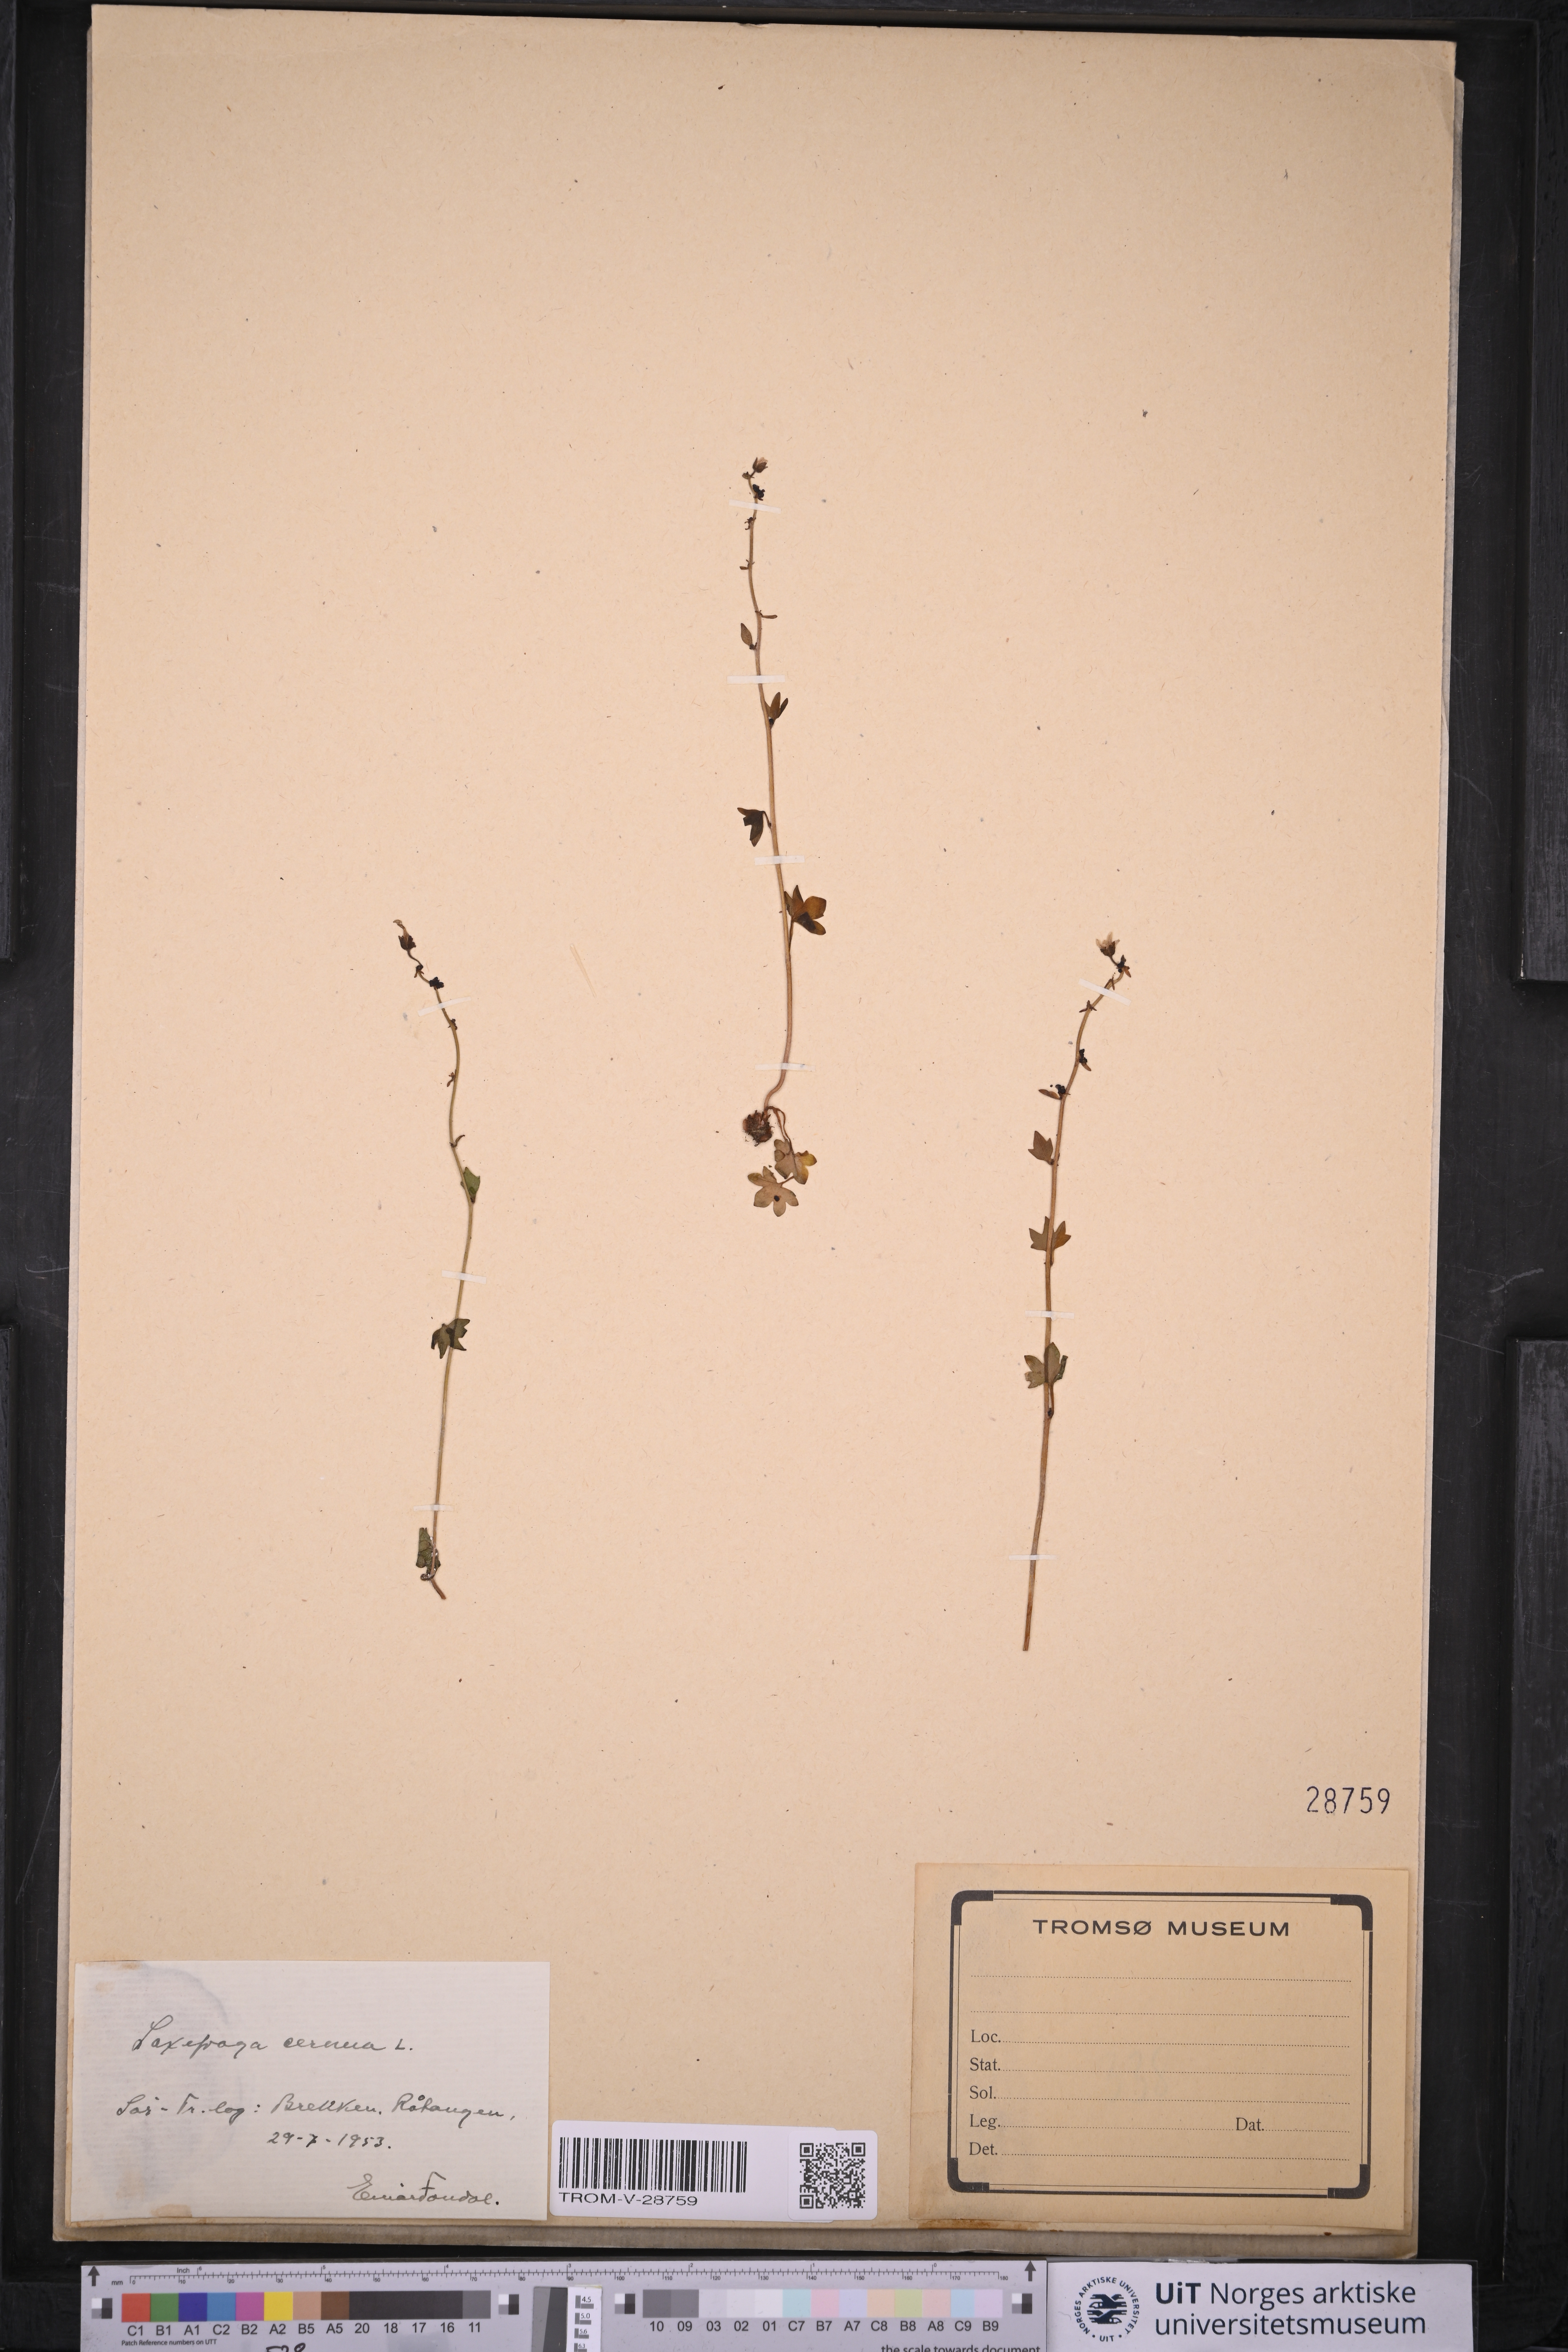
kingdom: Plantae
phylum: Tracheophyta
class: Magnoliopsida
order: Saxifragales
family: Saxifragaceae
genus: Saxifraga
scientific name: Saxifraga cernua
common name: Drooping saxifrage
